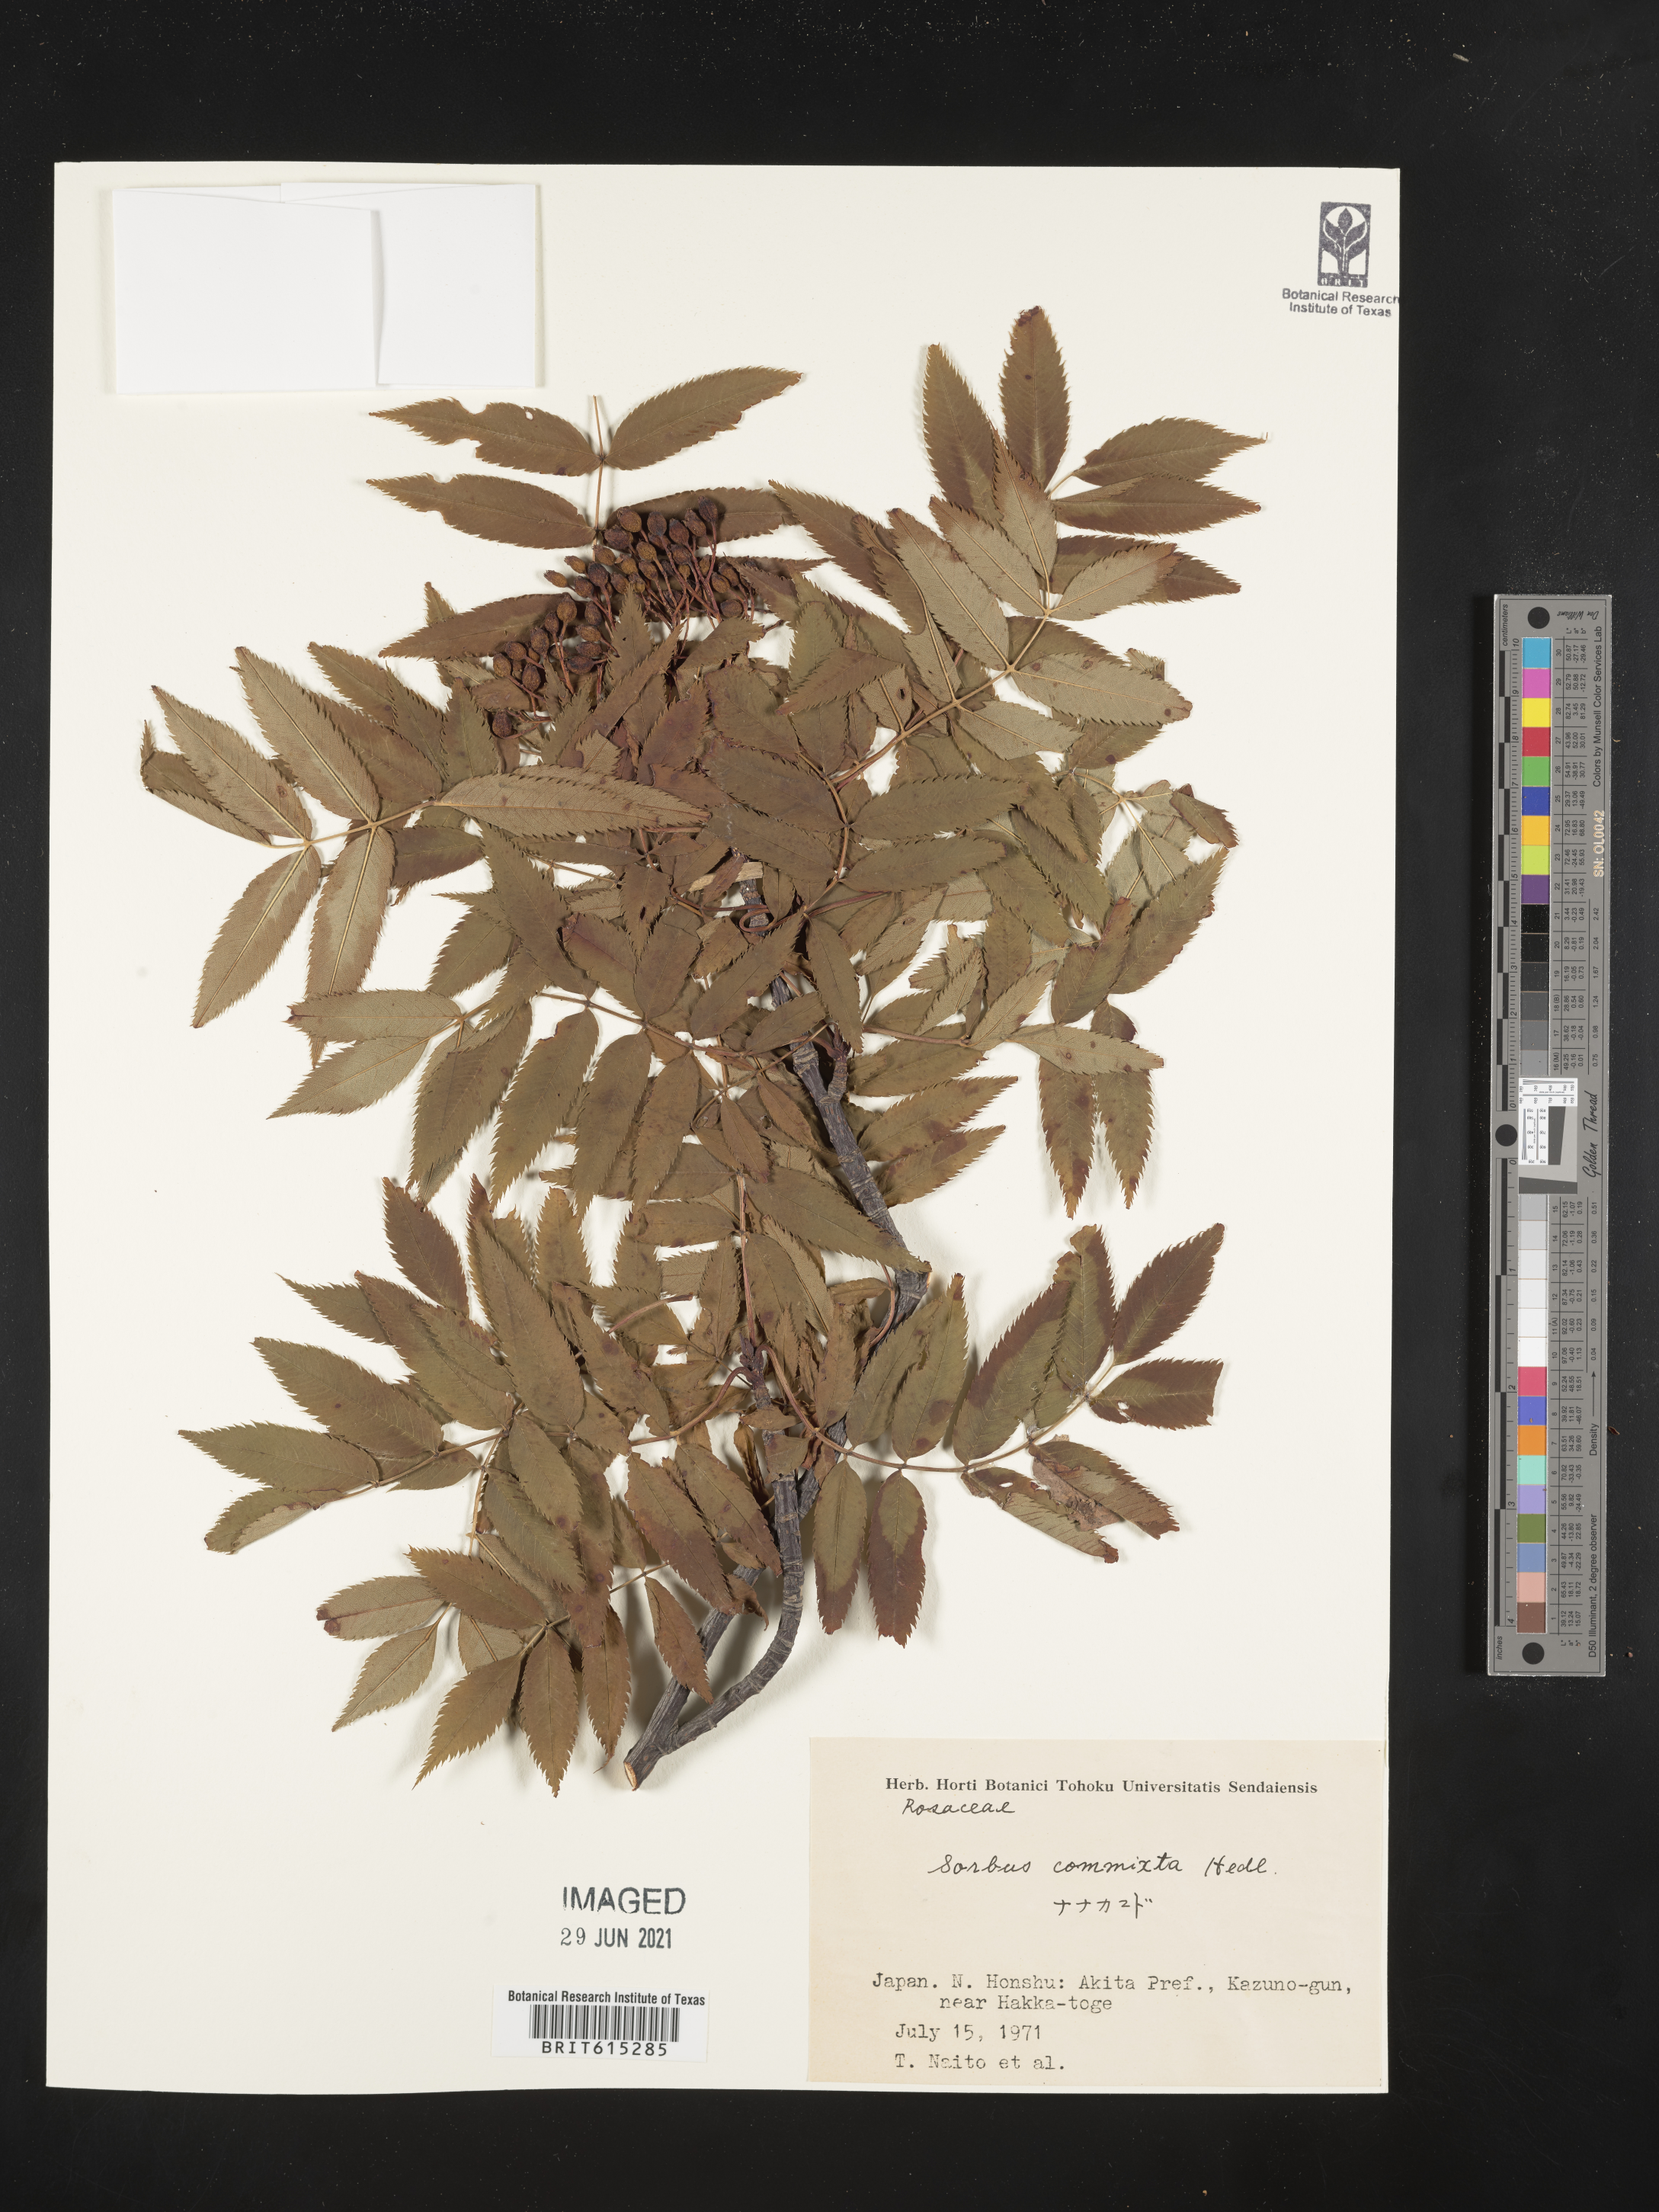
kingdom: Plantae
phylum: Tracheophyta
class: Magnoliopsida
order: Rosales
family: Rosaceae
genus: Sorbus
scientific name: Sorbus commixta
